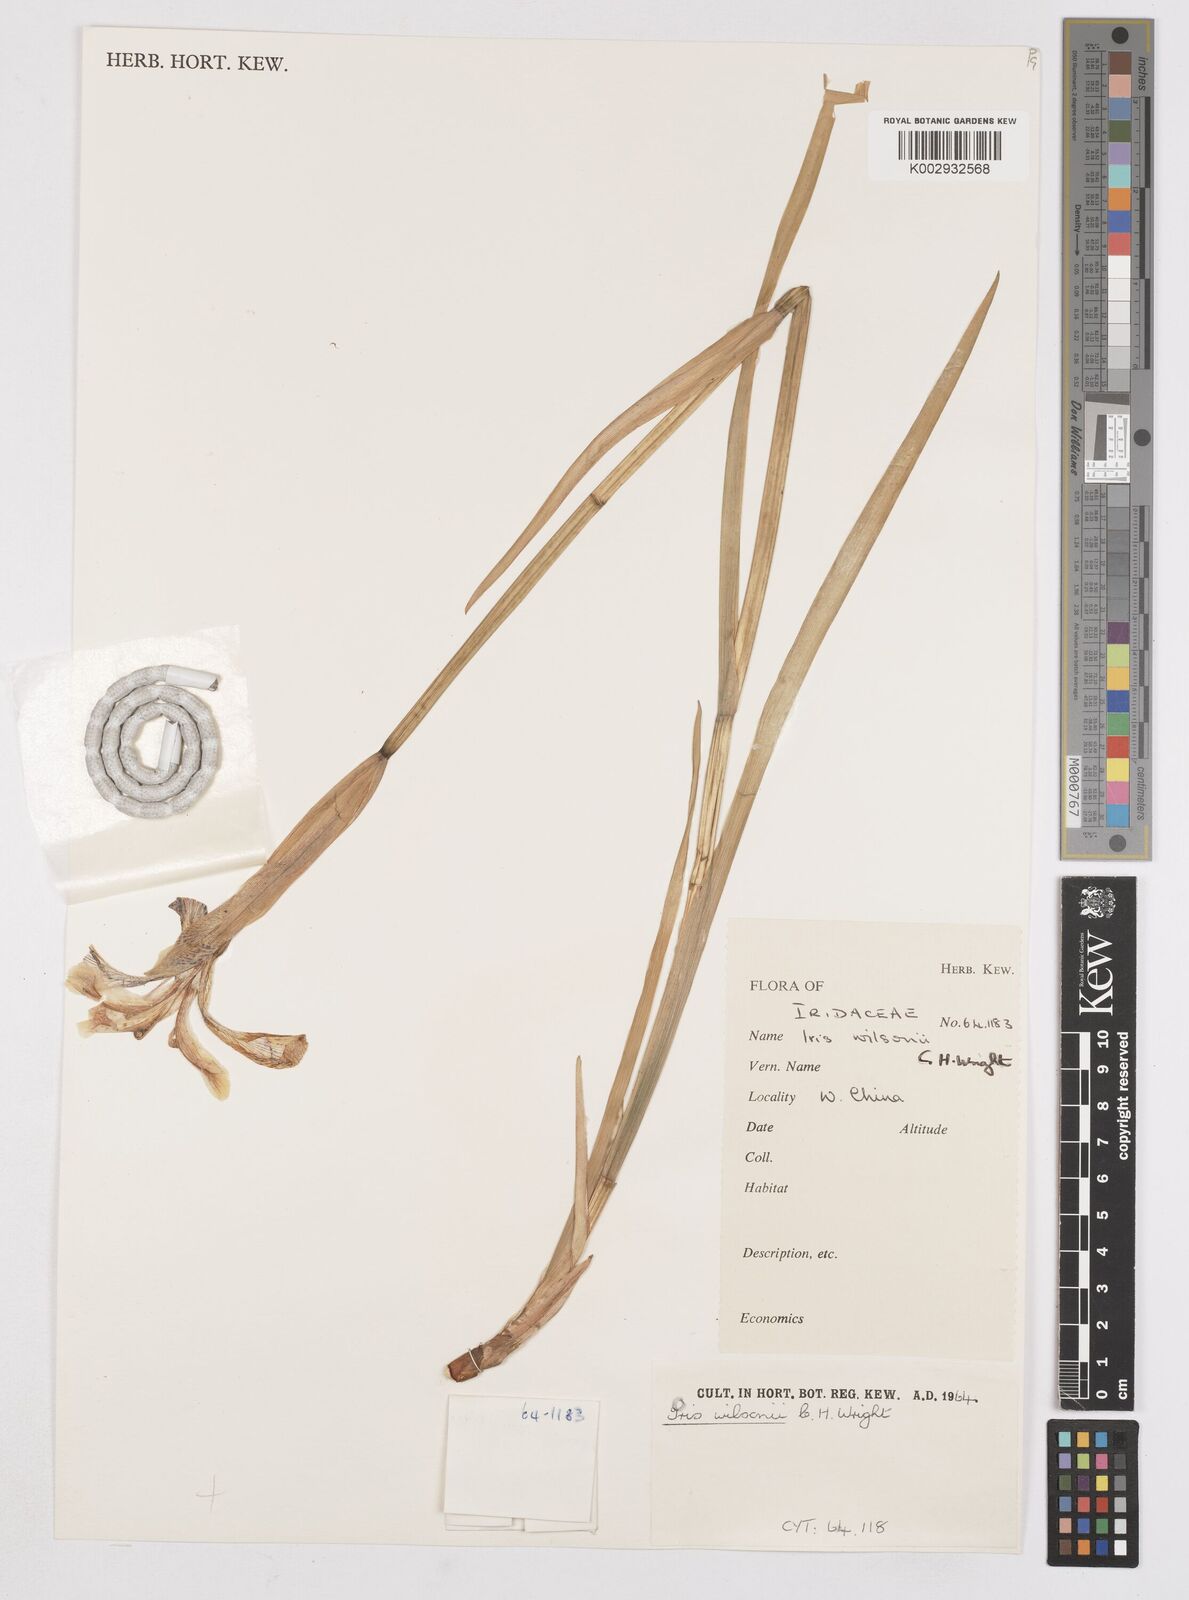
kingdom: Plantae
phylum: Tracheophyta
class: Liliopsida
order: Asparagales
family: Iridaceae
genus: Iris
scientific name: Iris wilsonii
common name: Yellow-flower iris
